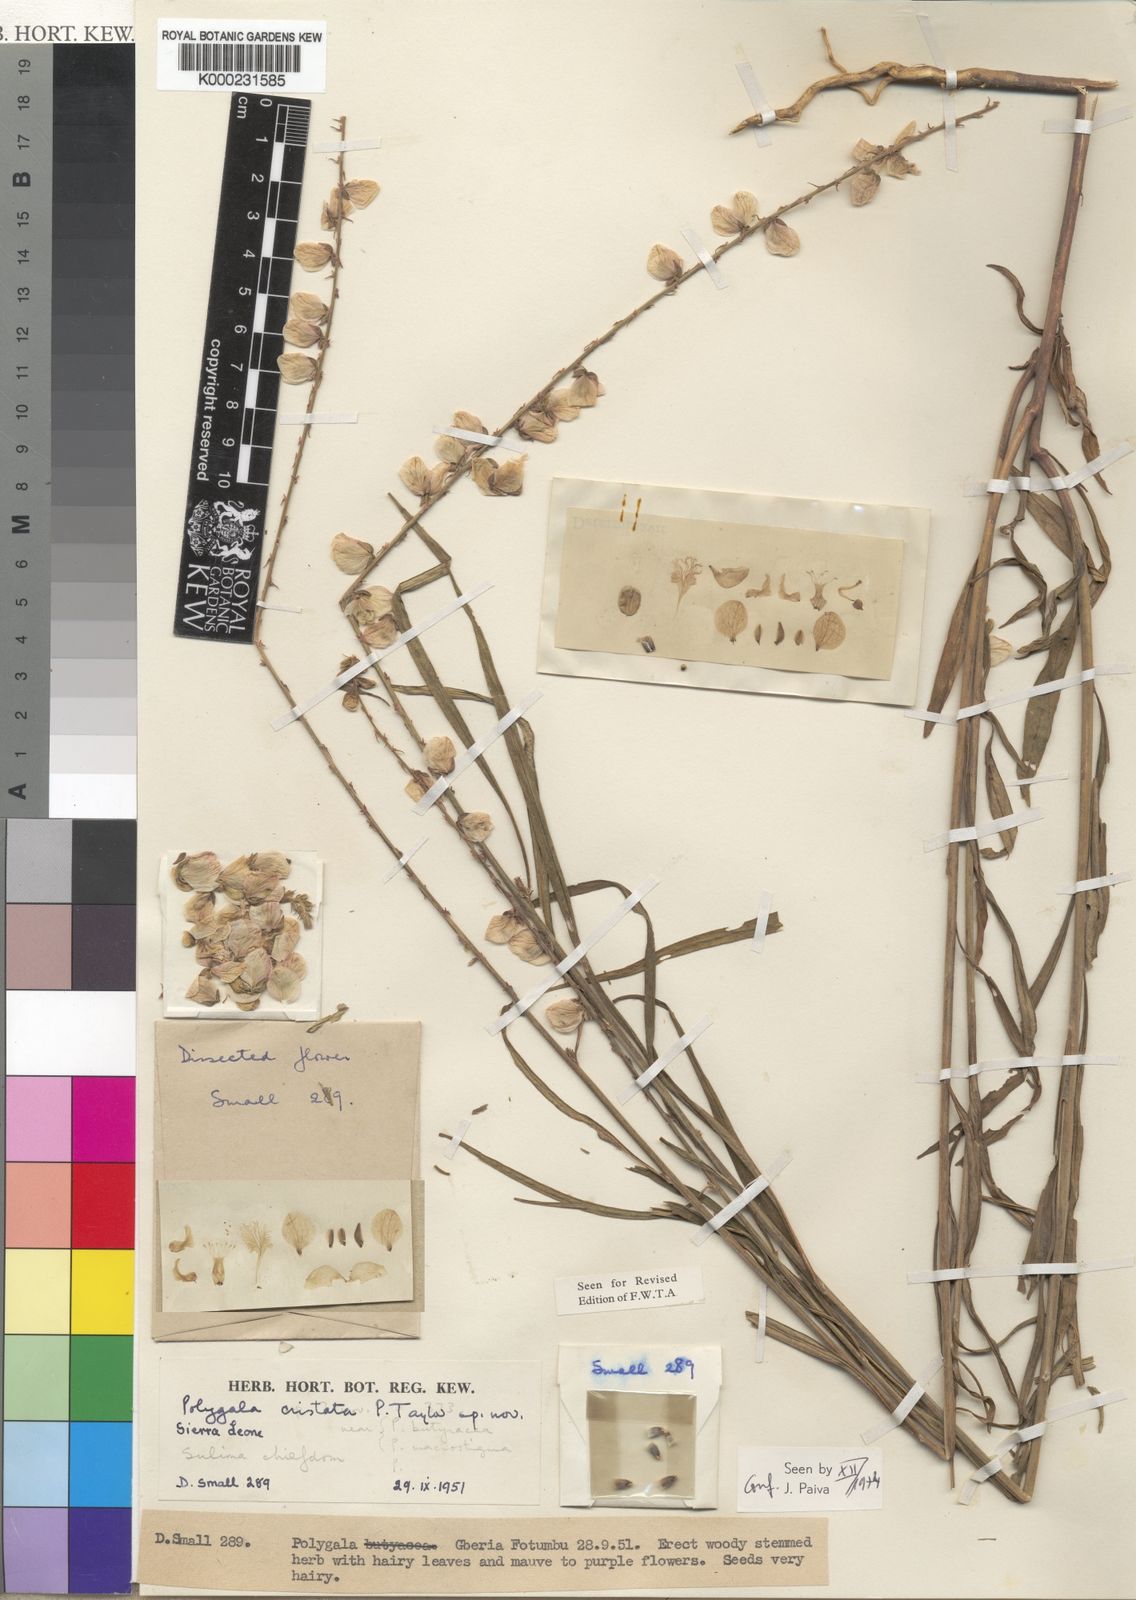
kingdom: Plantae
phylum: Tracheophyta
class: Magnoliopsida
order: Fabales
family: Polygalaceae
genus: Polygala
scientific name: Polygala cristata
